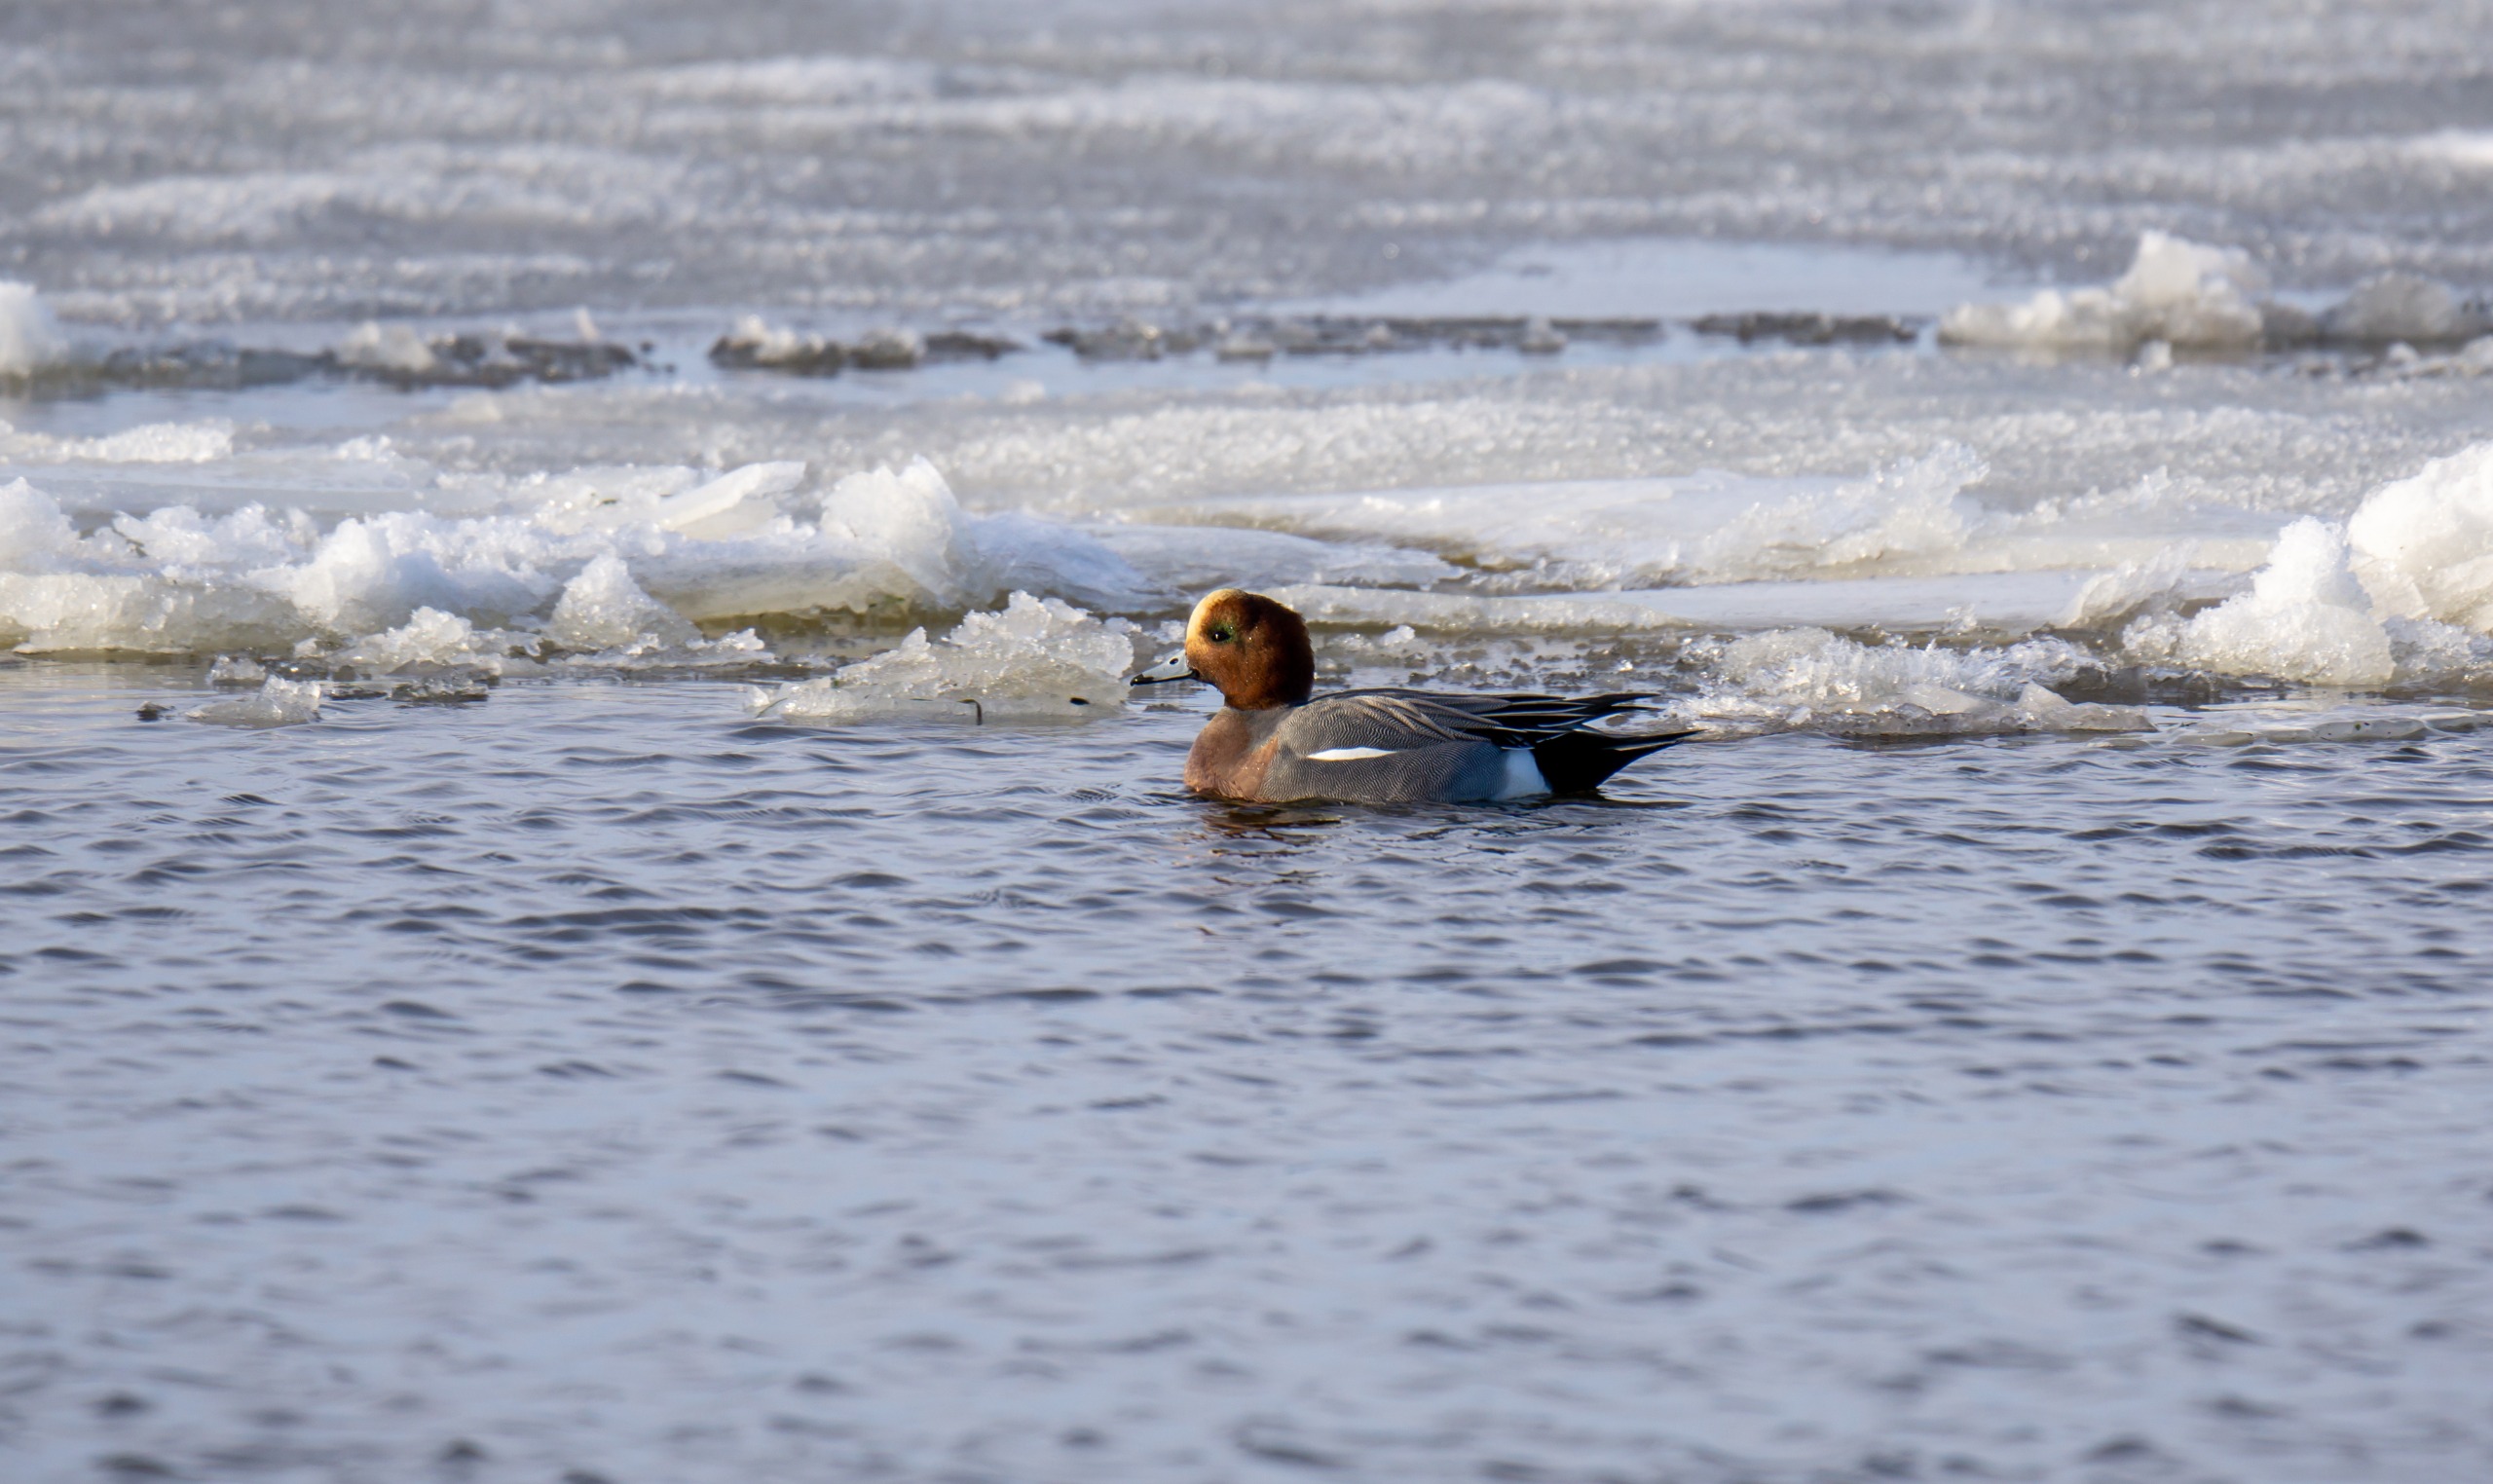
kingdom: Animalia
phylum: Chordata
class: Aves
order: Anseriformes
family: Anatidae
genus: Mareca
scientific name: Mareca penelope
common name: Pibeand
